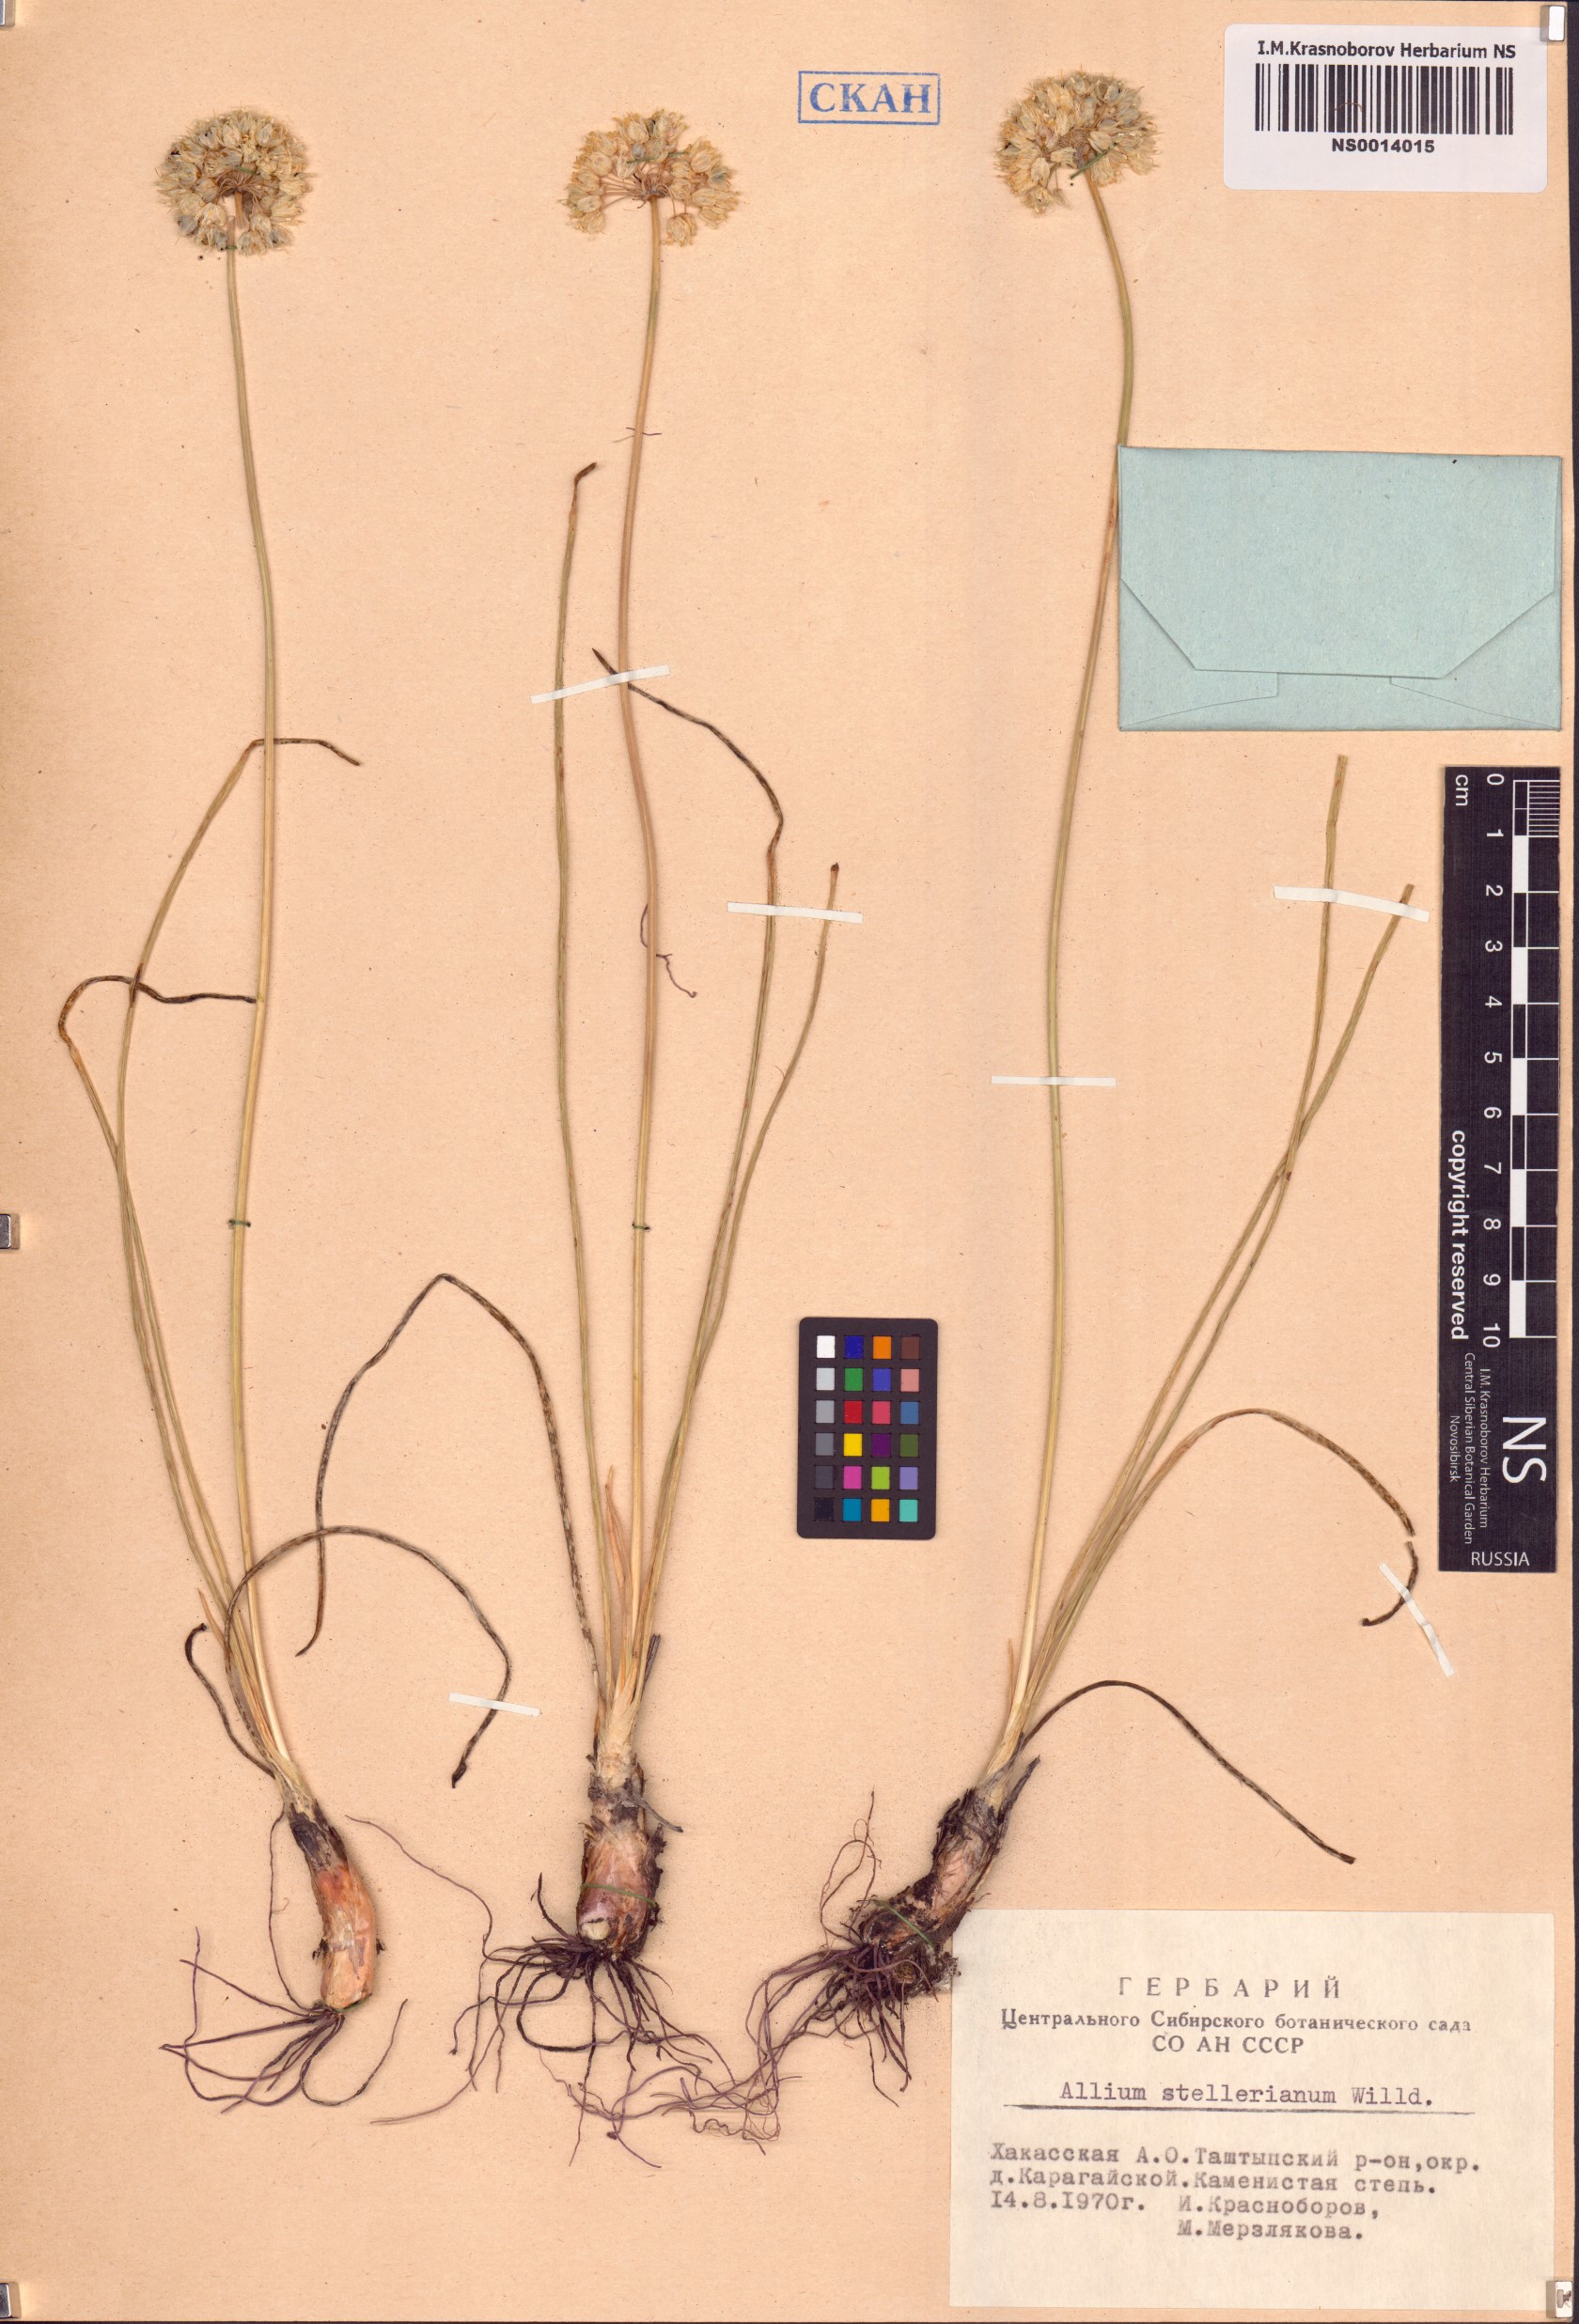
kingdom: Plantae
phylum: Tracheophyta
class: Liliopsida
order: Asparagales
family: Amaryllidaceae
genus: Allium
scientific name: Allium stellerianum
